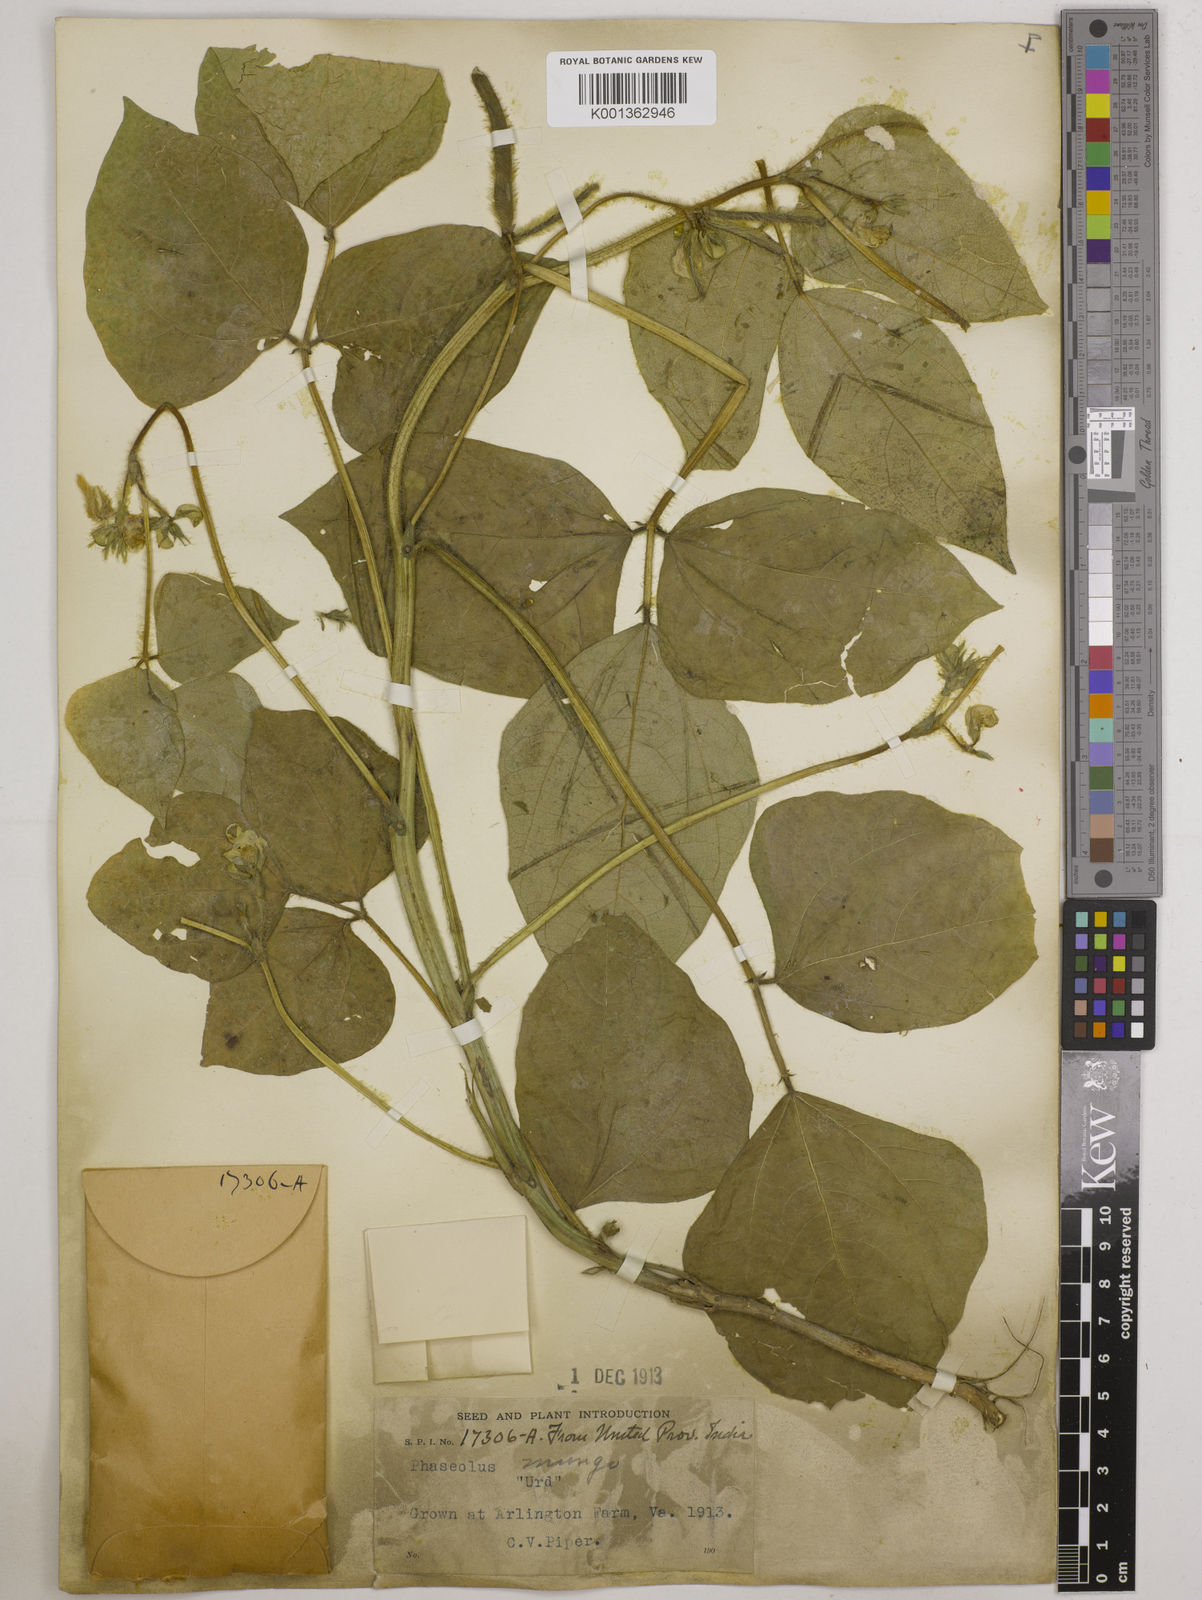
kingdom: Plantae
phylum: Tracheophyta
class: Magnoliopsida
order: Fabales
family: Fabaceae
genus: Vigna
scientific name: Vigna mungo
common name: Black gram
